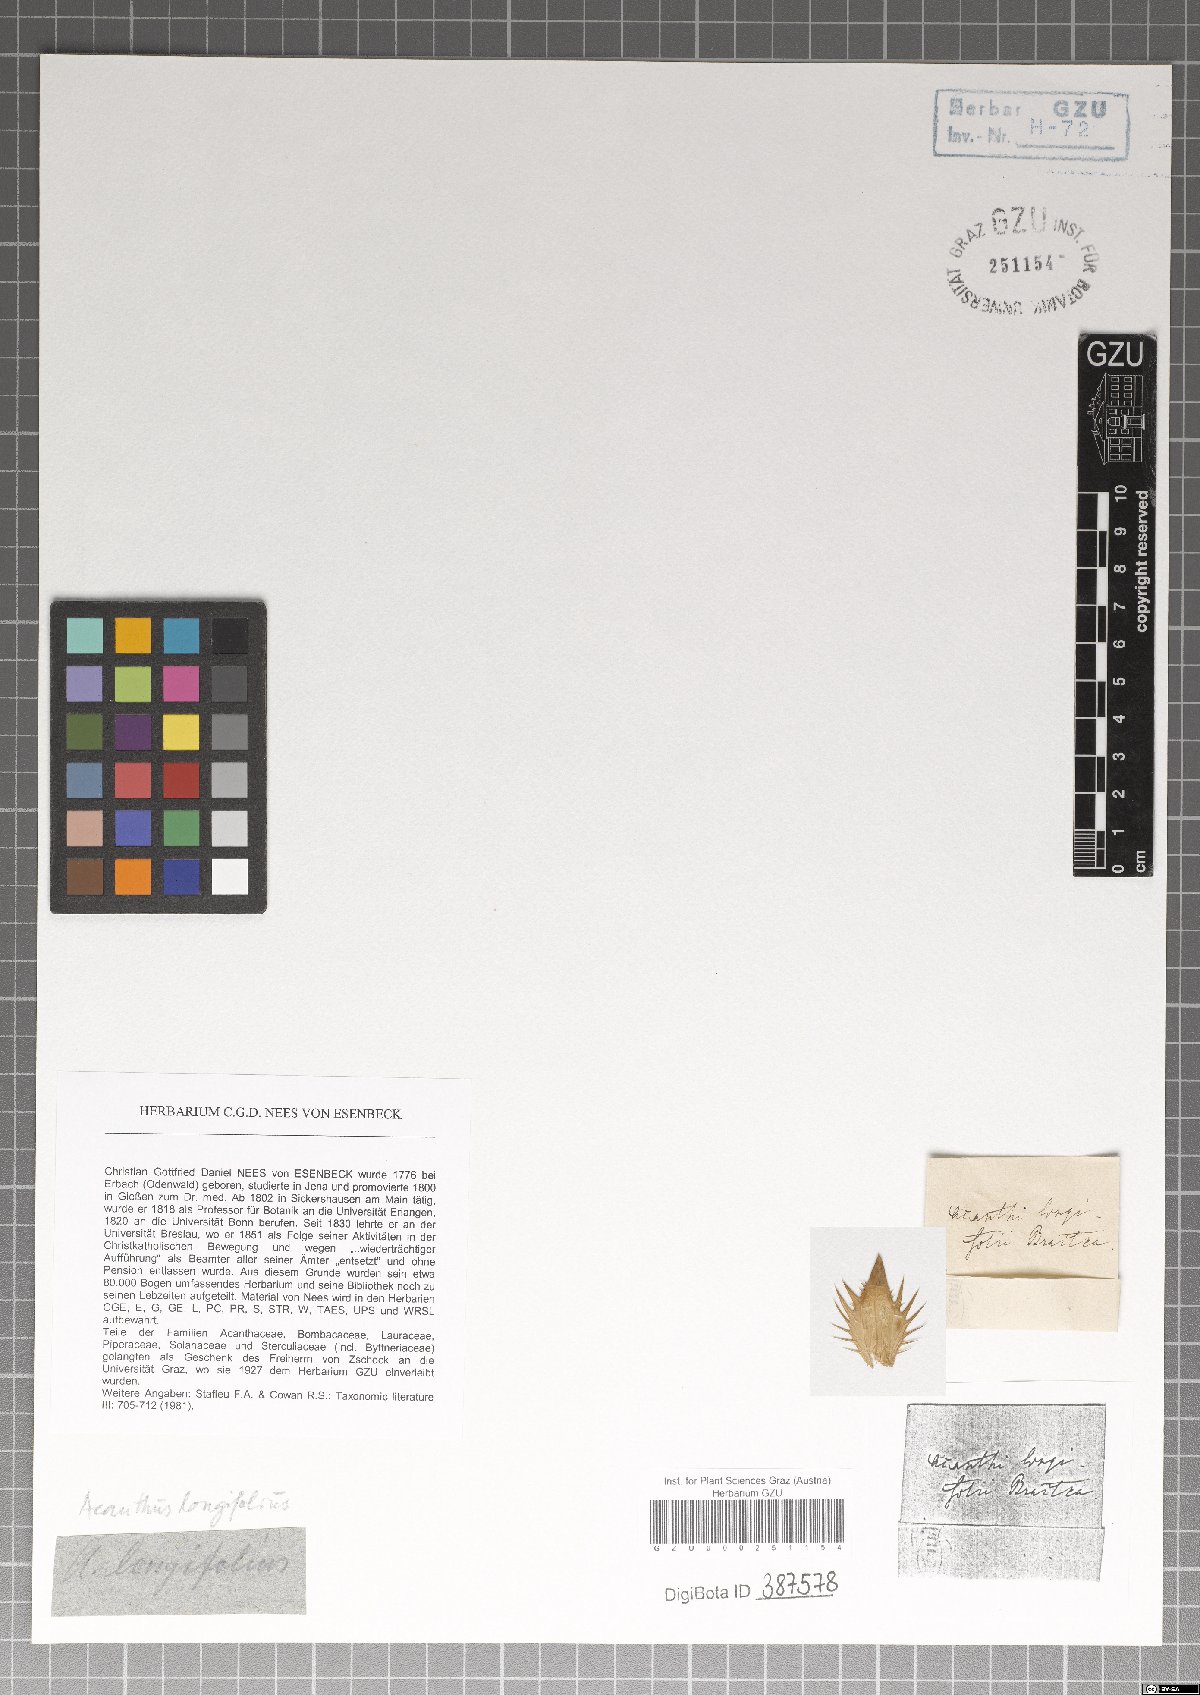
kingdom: Plantae
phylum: Tracheophyta
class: Magnoliopsida
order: Lamiales
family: Acanthaceae
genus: Acanthus
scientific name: Acanthus hungaricus
